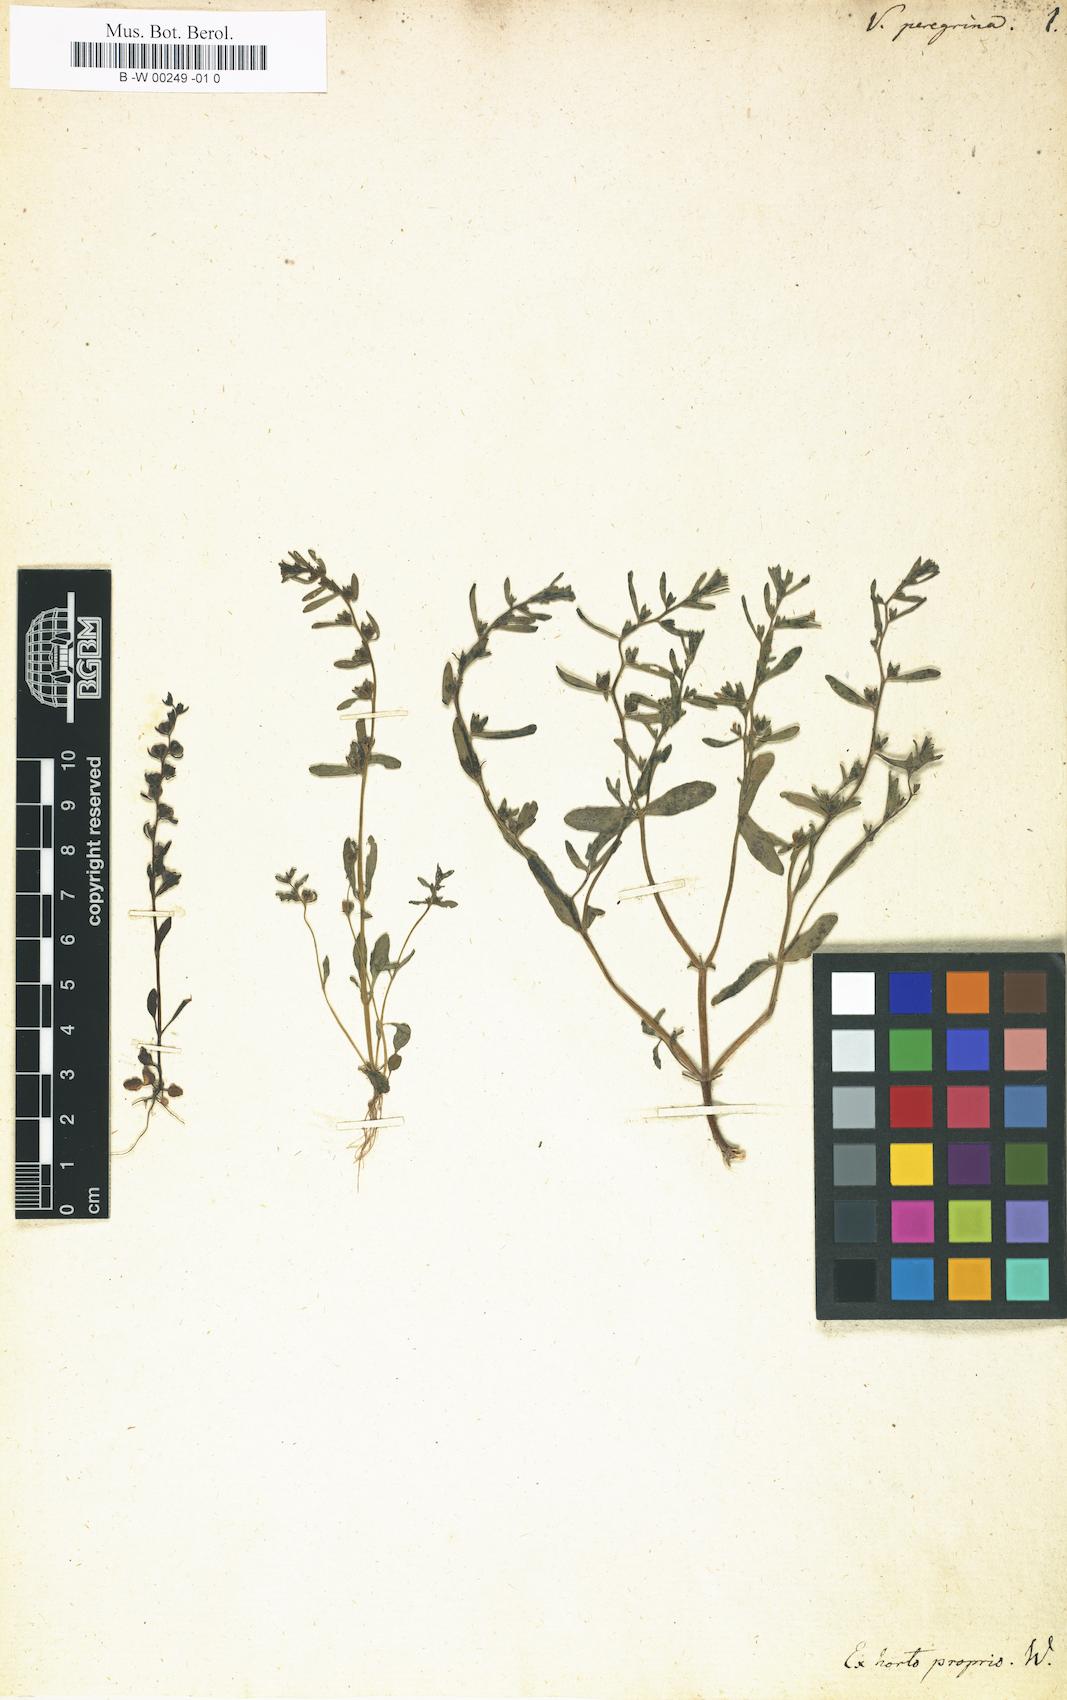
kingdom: Plantae
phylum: Tracheophyta
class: Magnoliopsida
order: Lamiales
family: Plantaginaceae
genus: Veronica
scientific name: Veronica peregrina
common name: Neckweed
